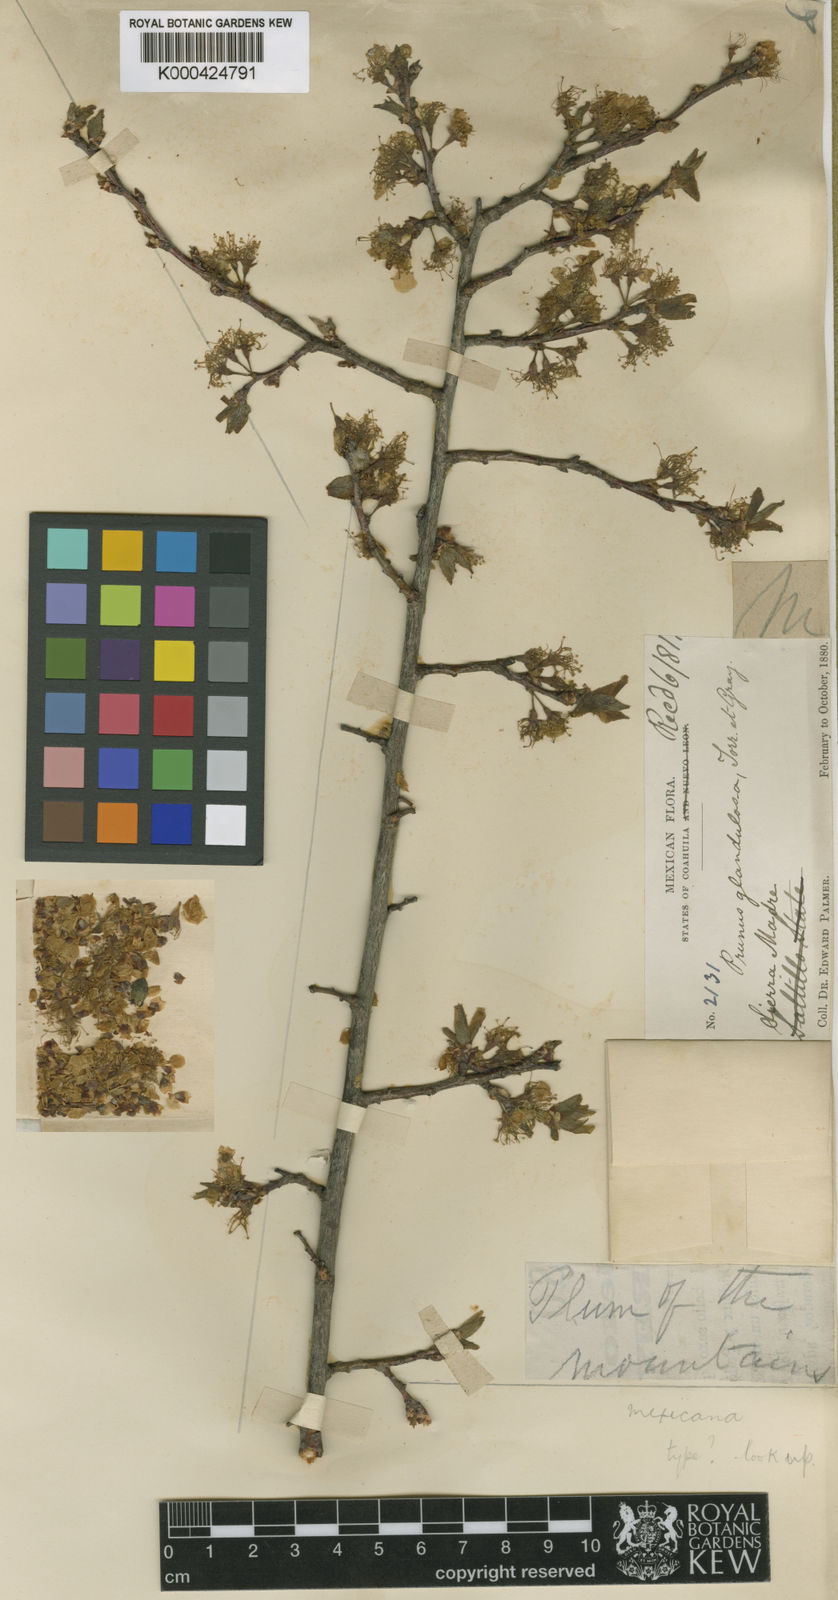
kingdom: Plantae
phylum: Tracheophyta
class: Magnoliopsida
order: Rosales
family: Rosaceae
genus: Prunus
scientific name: Prunus mexicana
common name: Mexican plum
